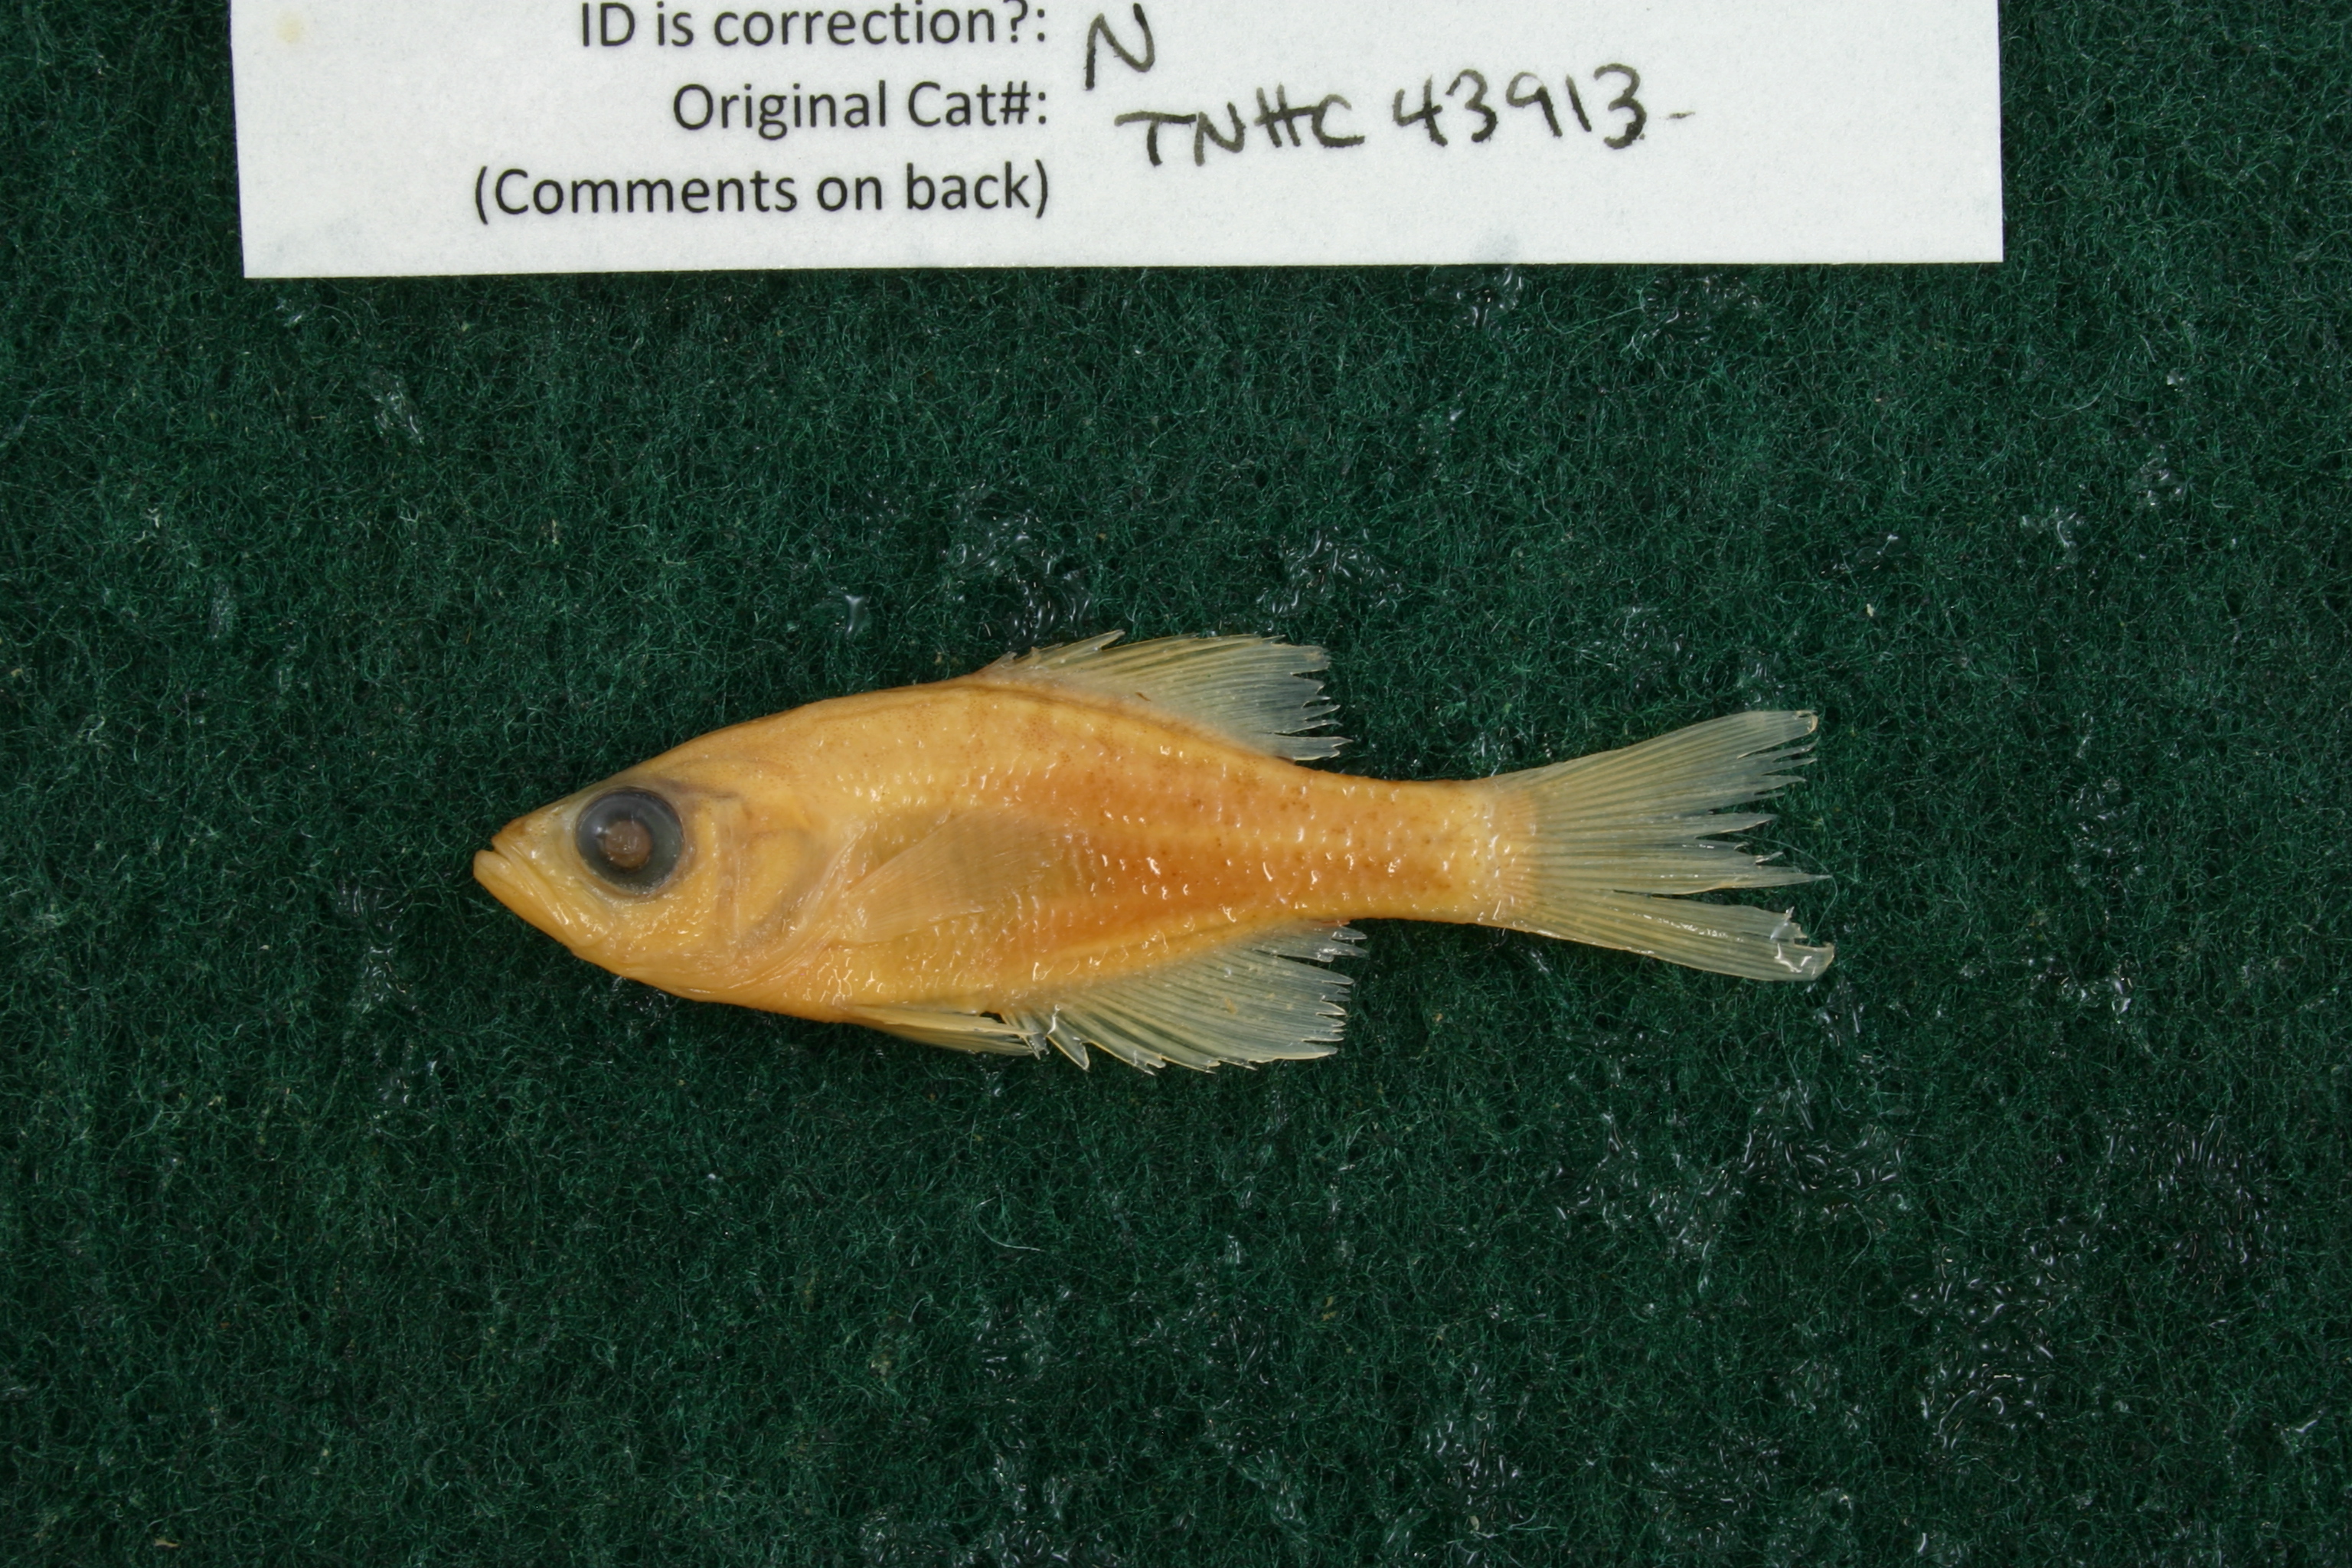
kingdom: Animalia
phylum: Chordata
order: Perciformes
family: Centrarchidae
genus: Pomoxis
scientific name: Pomoxis annularis
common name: White crappie
